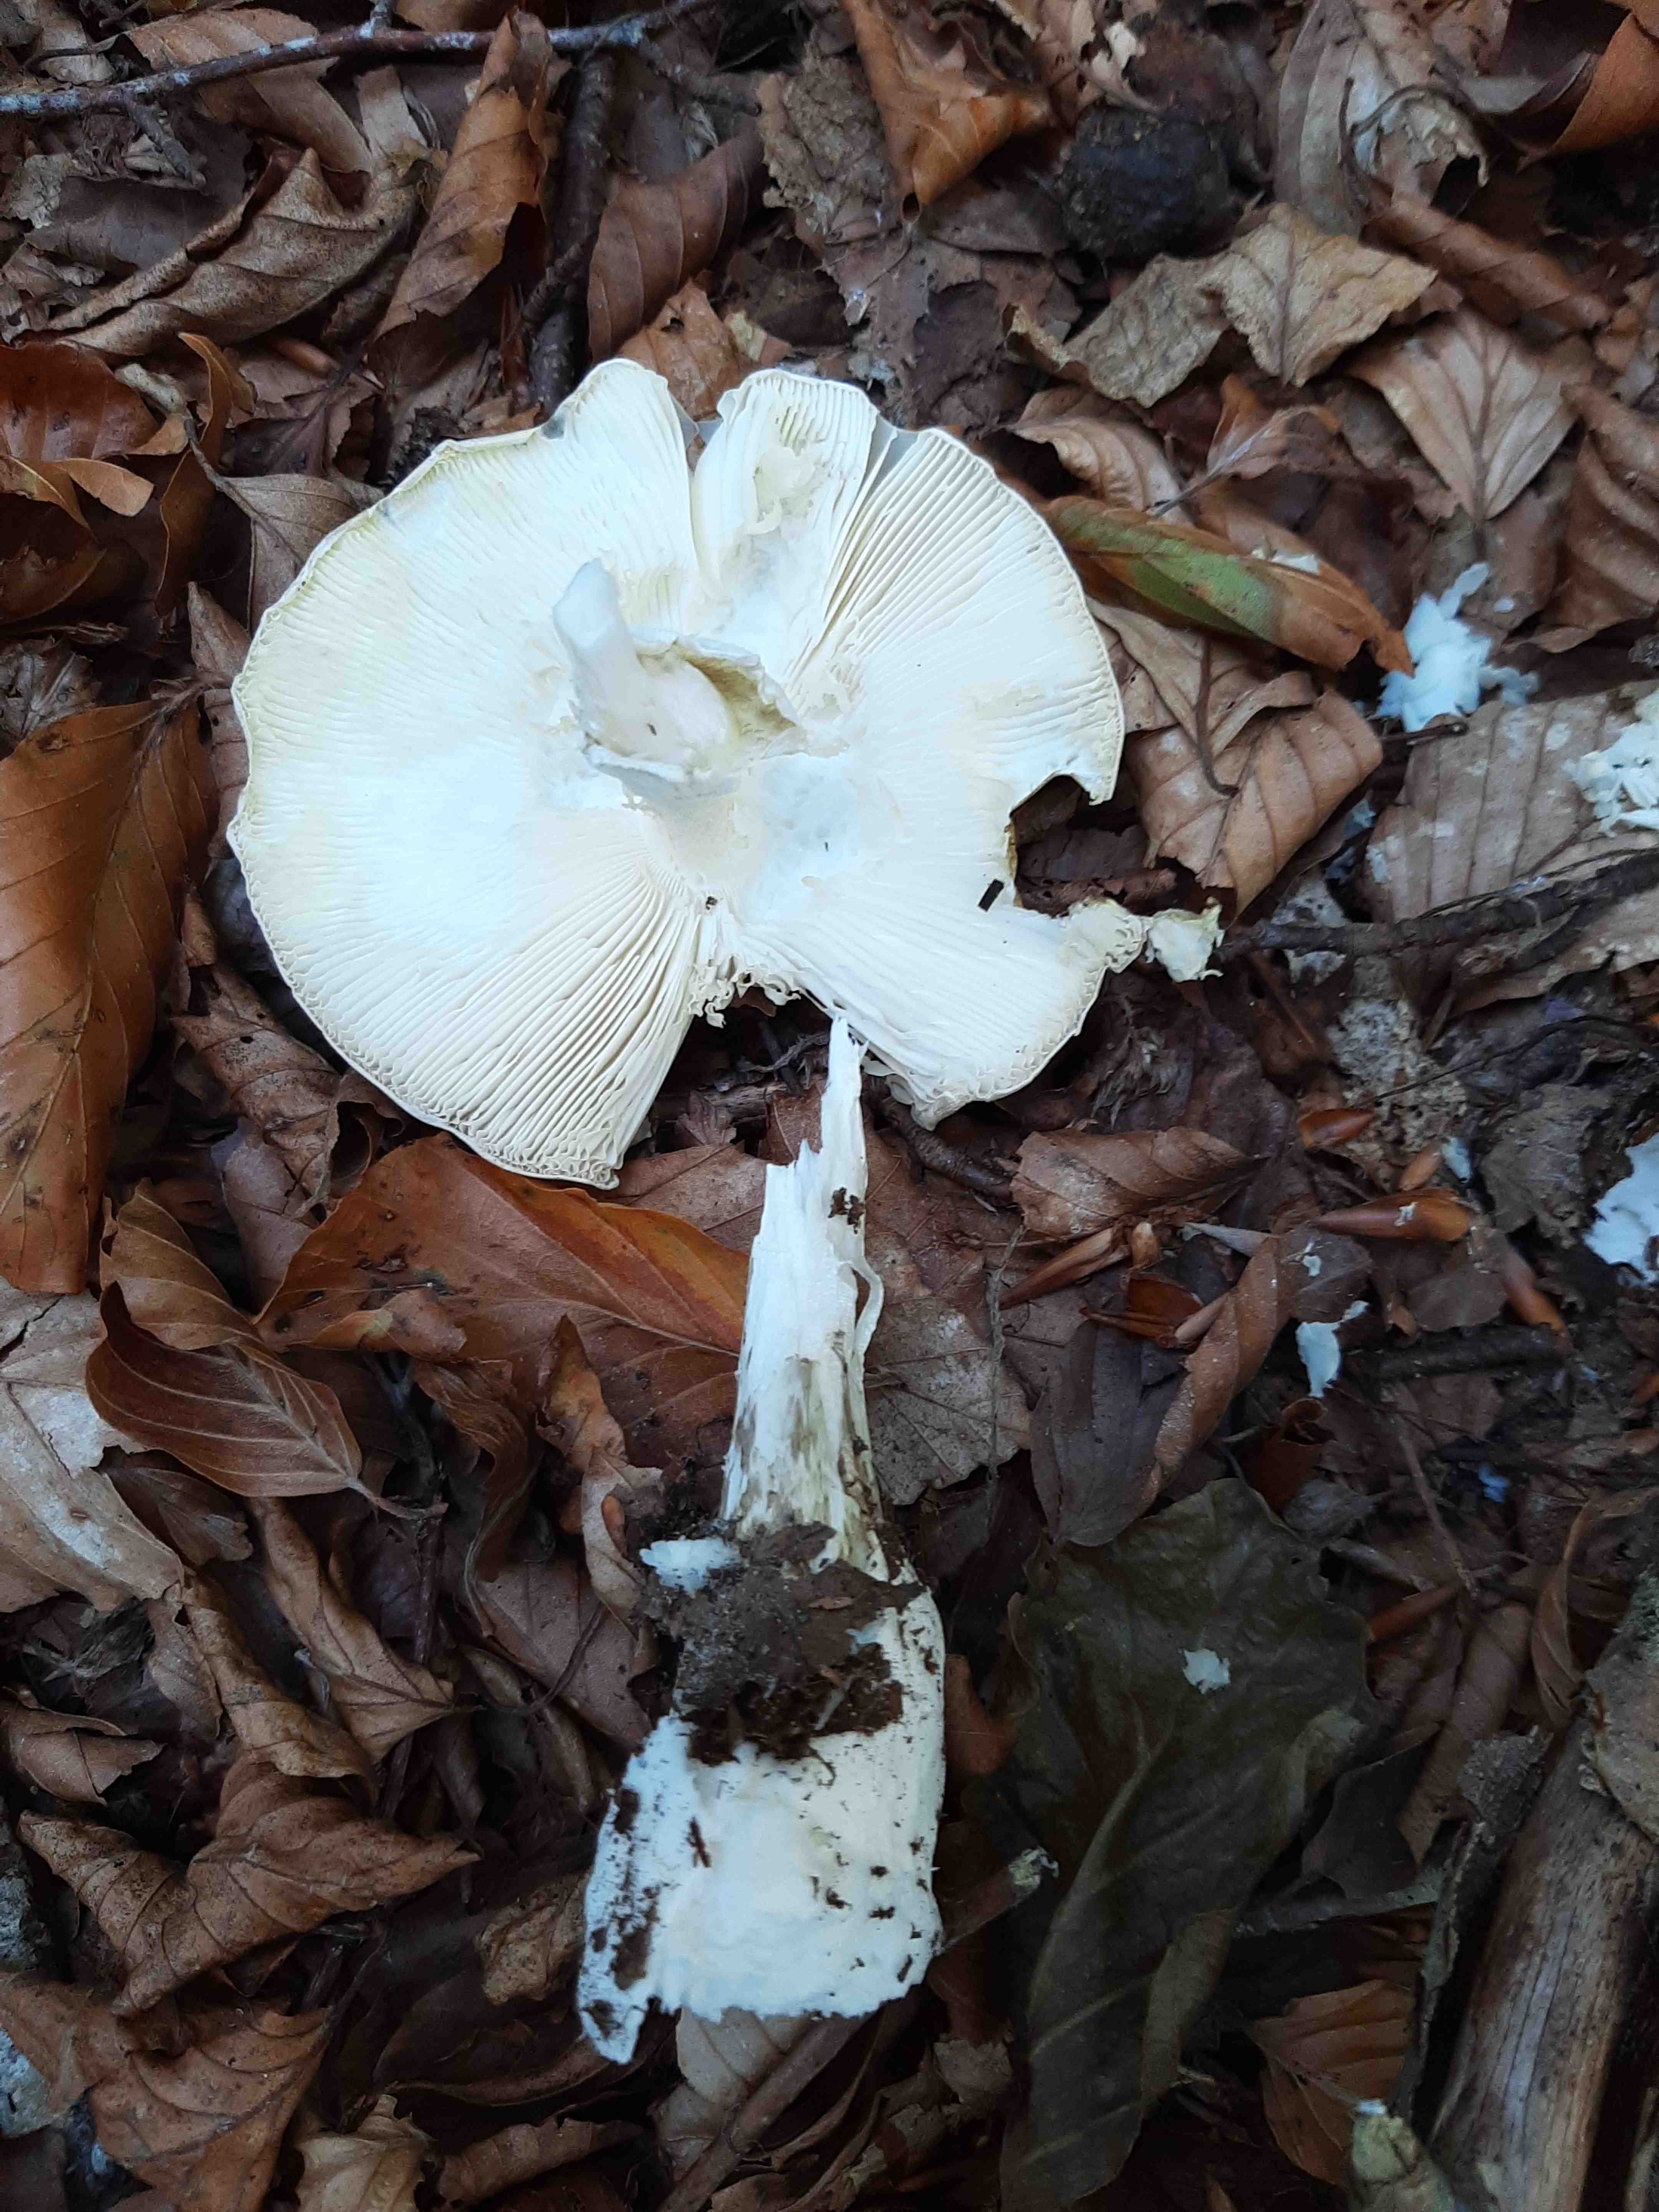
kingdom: Fungi
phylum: Basidiomycota
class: Agaricomycetes
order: Agaricales
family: Amanitaceae
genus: Amanita
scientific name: Amanita phalloides
